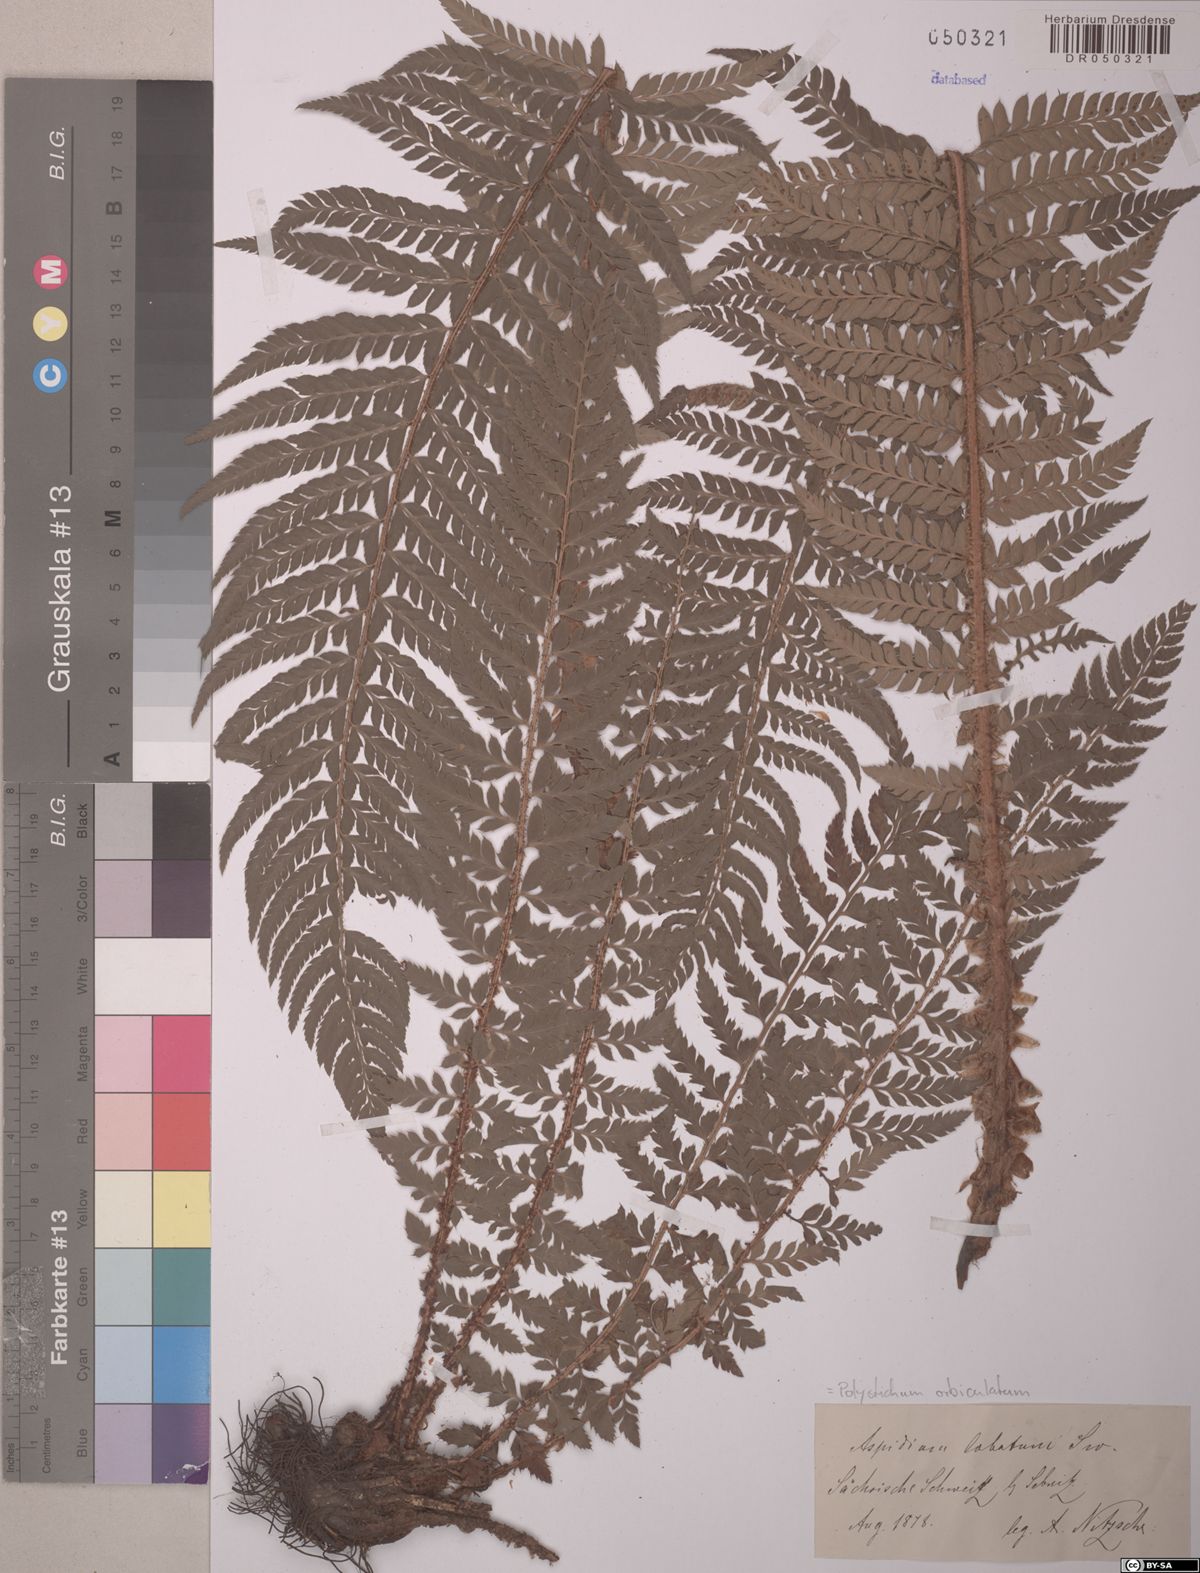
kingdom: Plantae
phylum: Tracheophyta
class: Polypodiopsida
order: Polypodiales
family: Dryopteridaceae
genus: Polystichum
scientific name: Polystichum aculeatum
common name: Hard shield-fern
